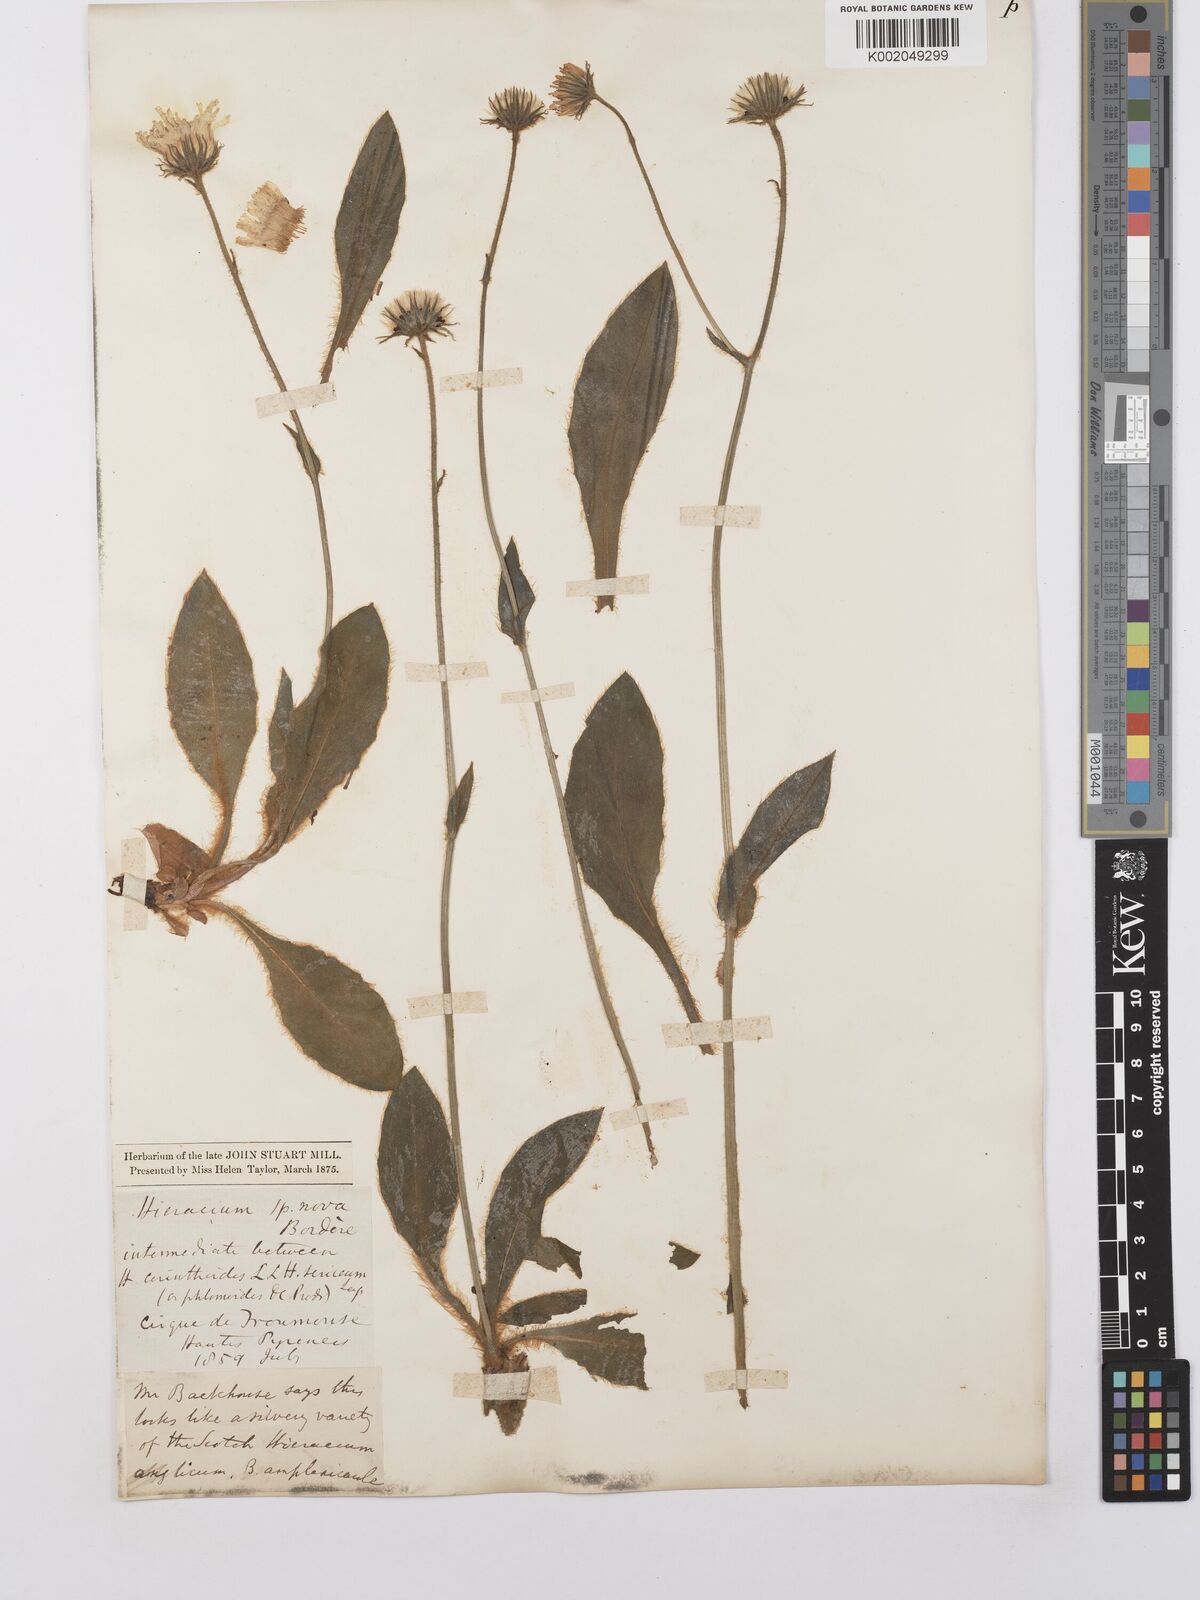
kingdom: Plantae
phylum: Tracheophyta
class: Magnoliopsida
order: Asterales
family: Asteraceae
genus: Hieracium
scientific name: Hieracium colmeiroanum
